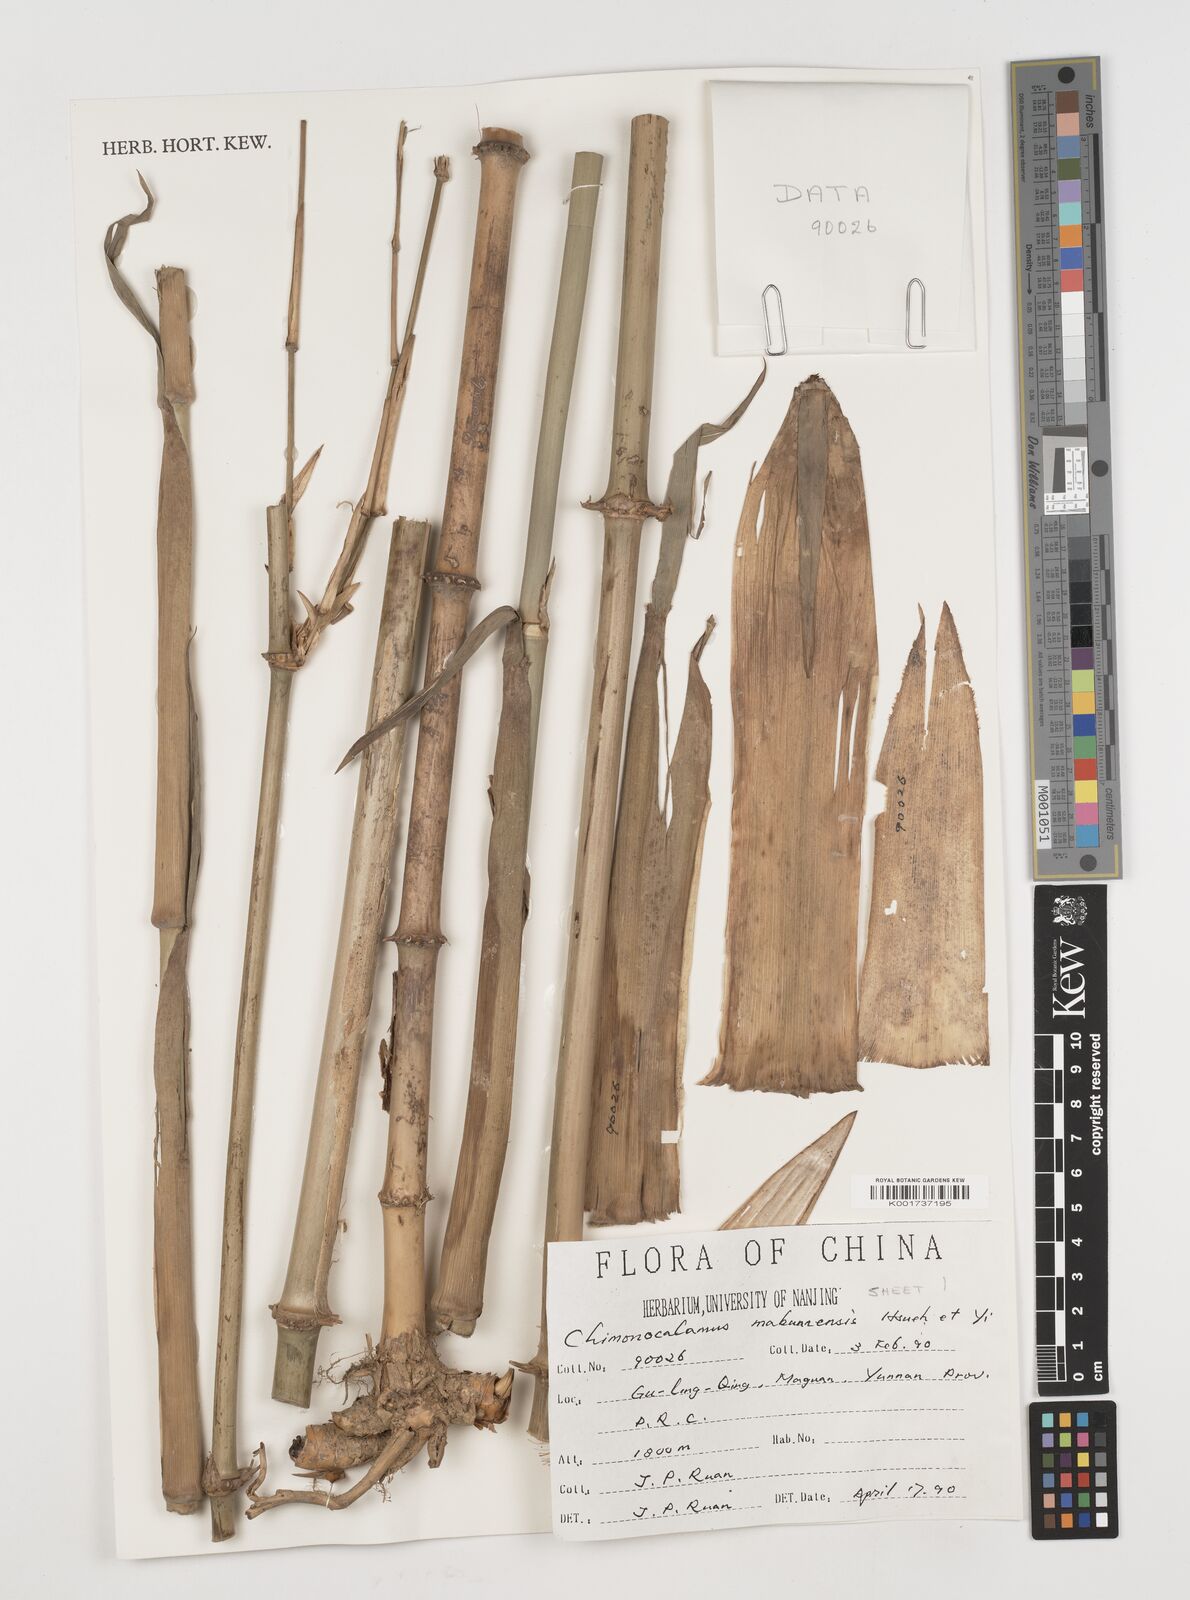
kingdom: Plantae
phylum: Tracheophyta
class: Liliopsida
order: Poales
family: Poaceae
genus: Chimonocalamus
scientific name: Chimonocalamus makuanensis
